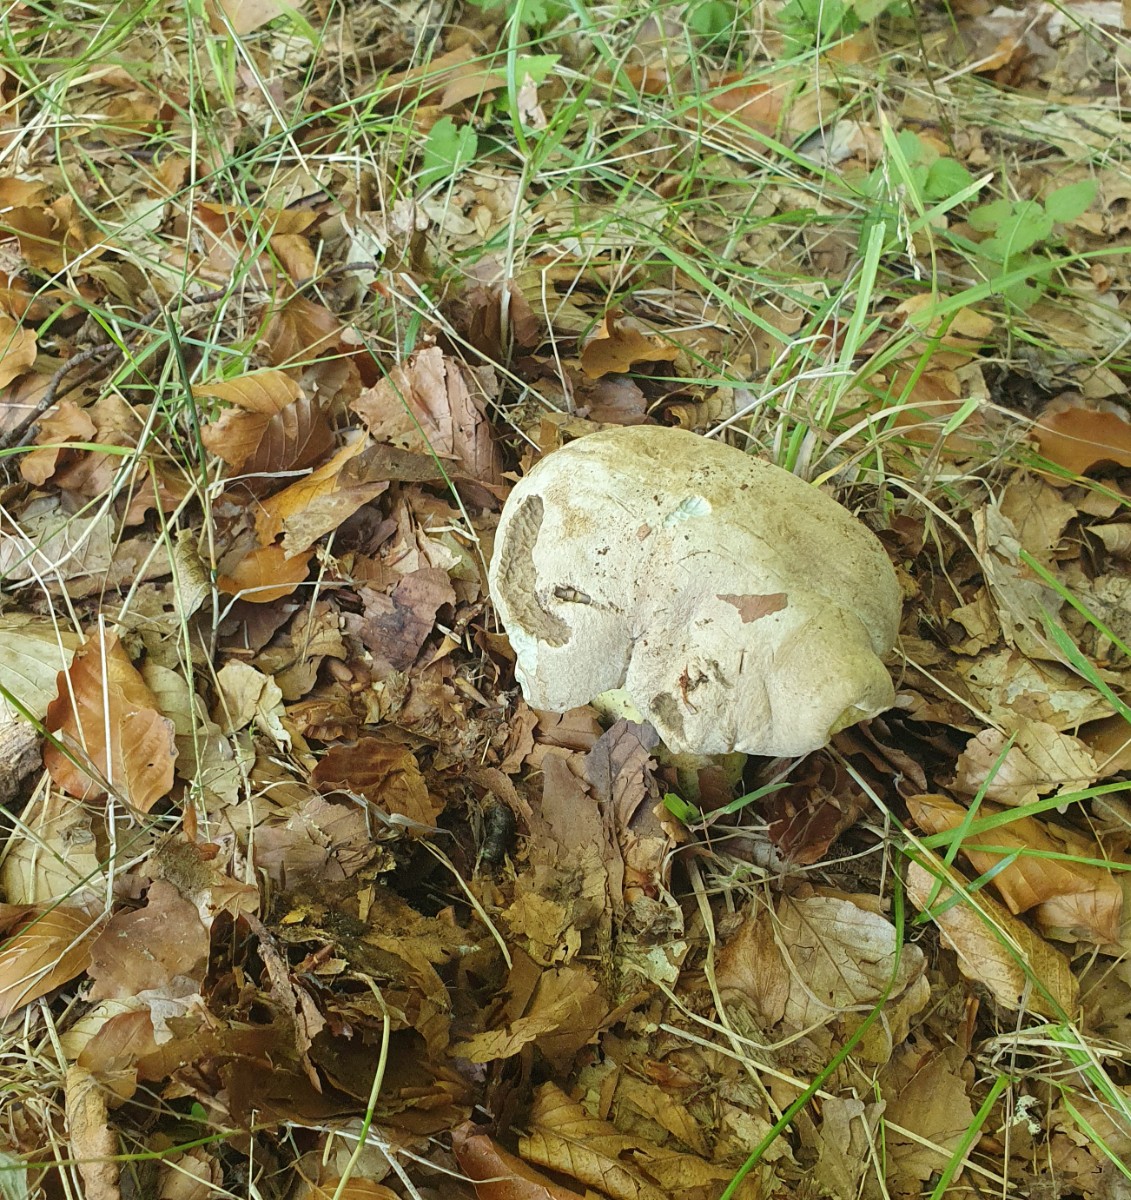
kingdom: Fungi
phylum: Basidiomycota
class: Agaricomycetes
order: Boletales
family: Boletaceae
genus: Caloboletus
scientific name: Caloboletus radicans
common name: rod-rørhat
